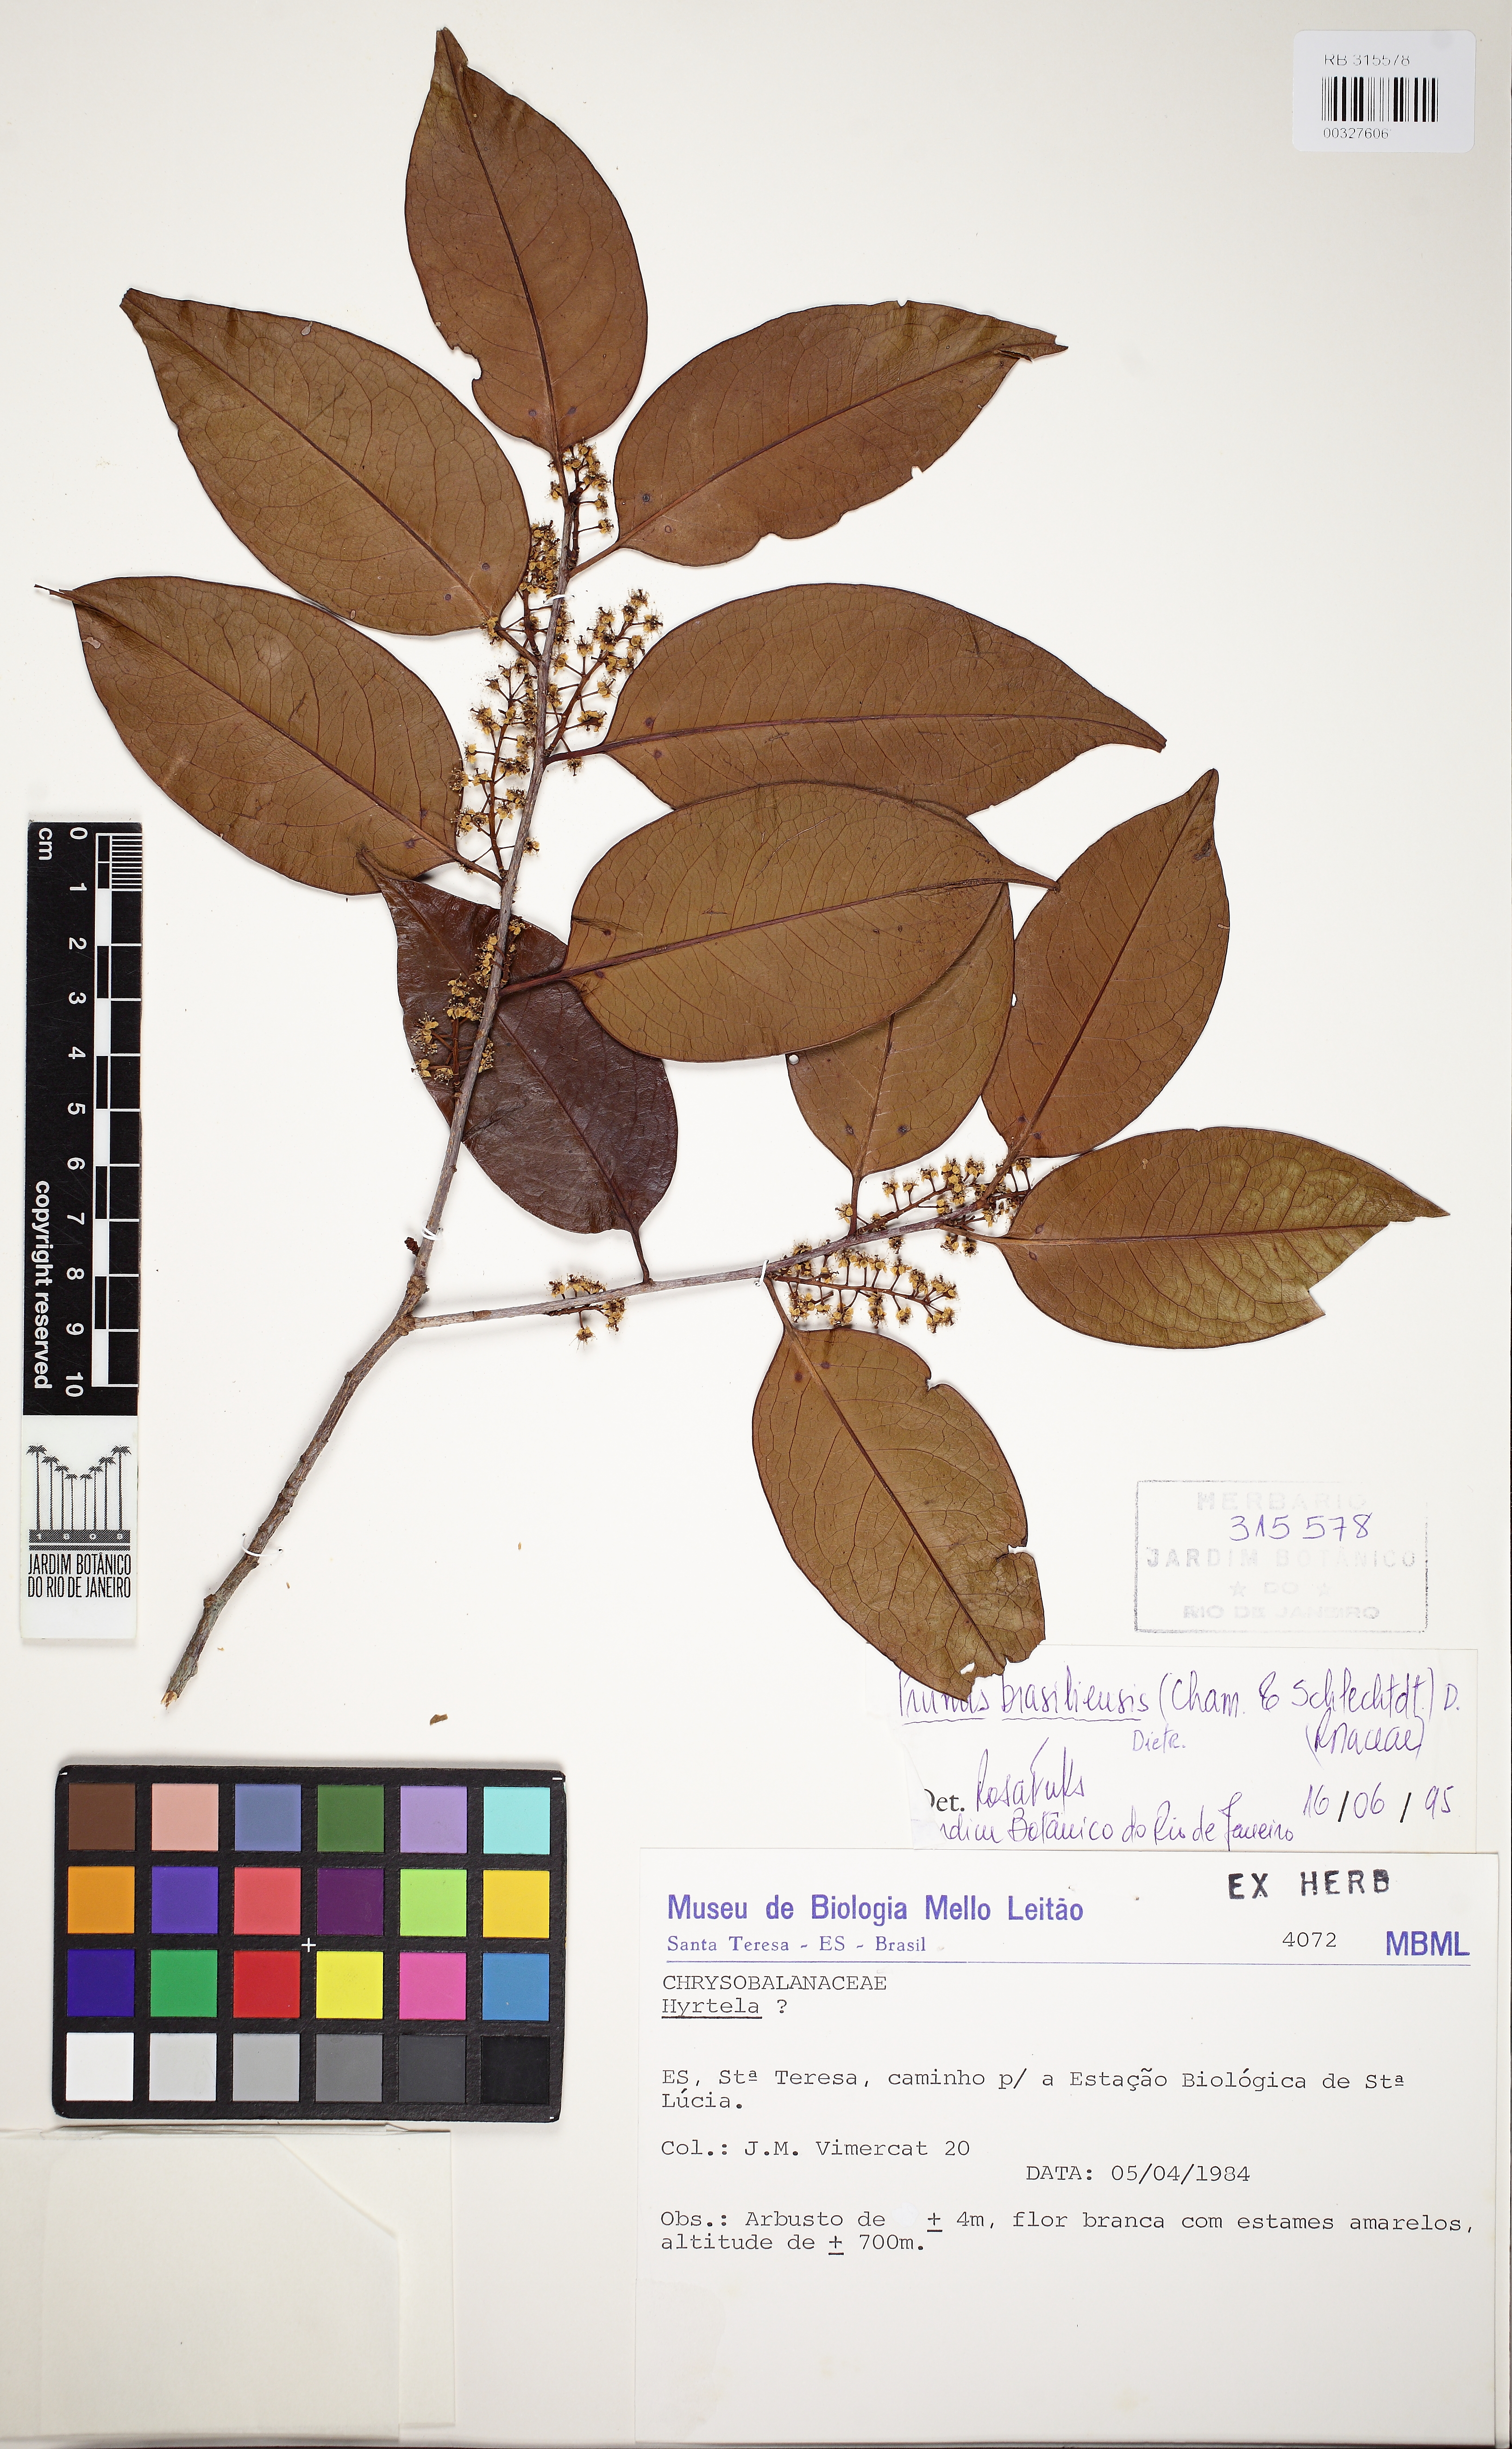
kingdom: Plantae
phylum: Tracheophyta
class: Magnoliopsida
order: Rosales
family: Rosaceae
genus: Prunus
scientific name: Prunus brasiliensis
